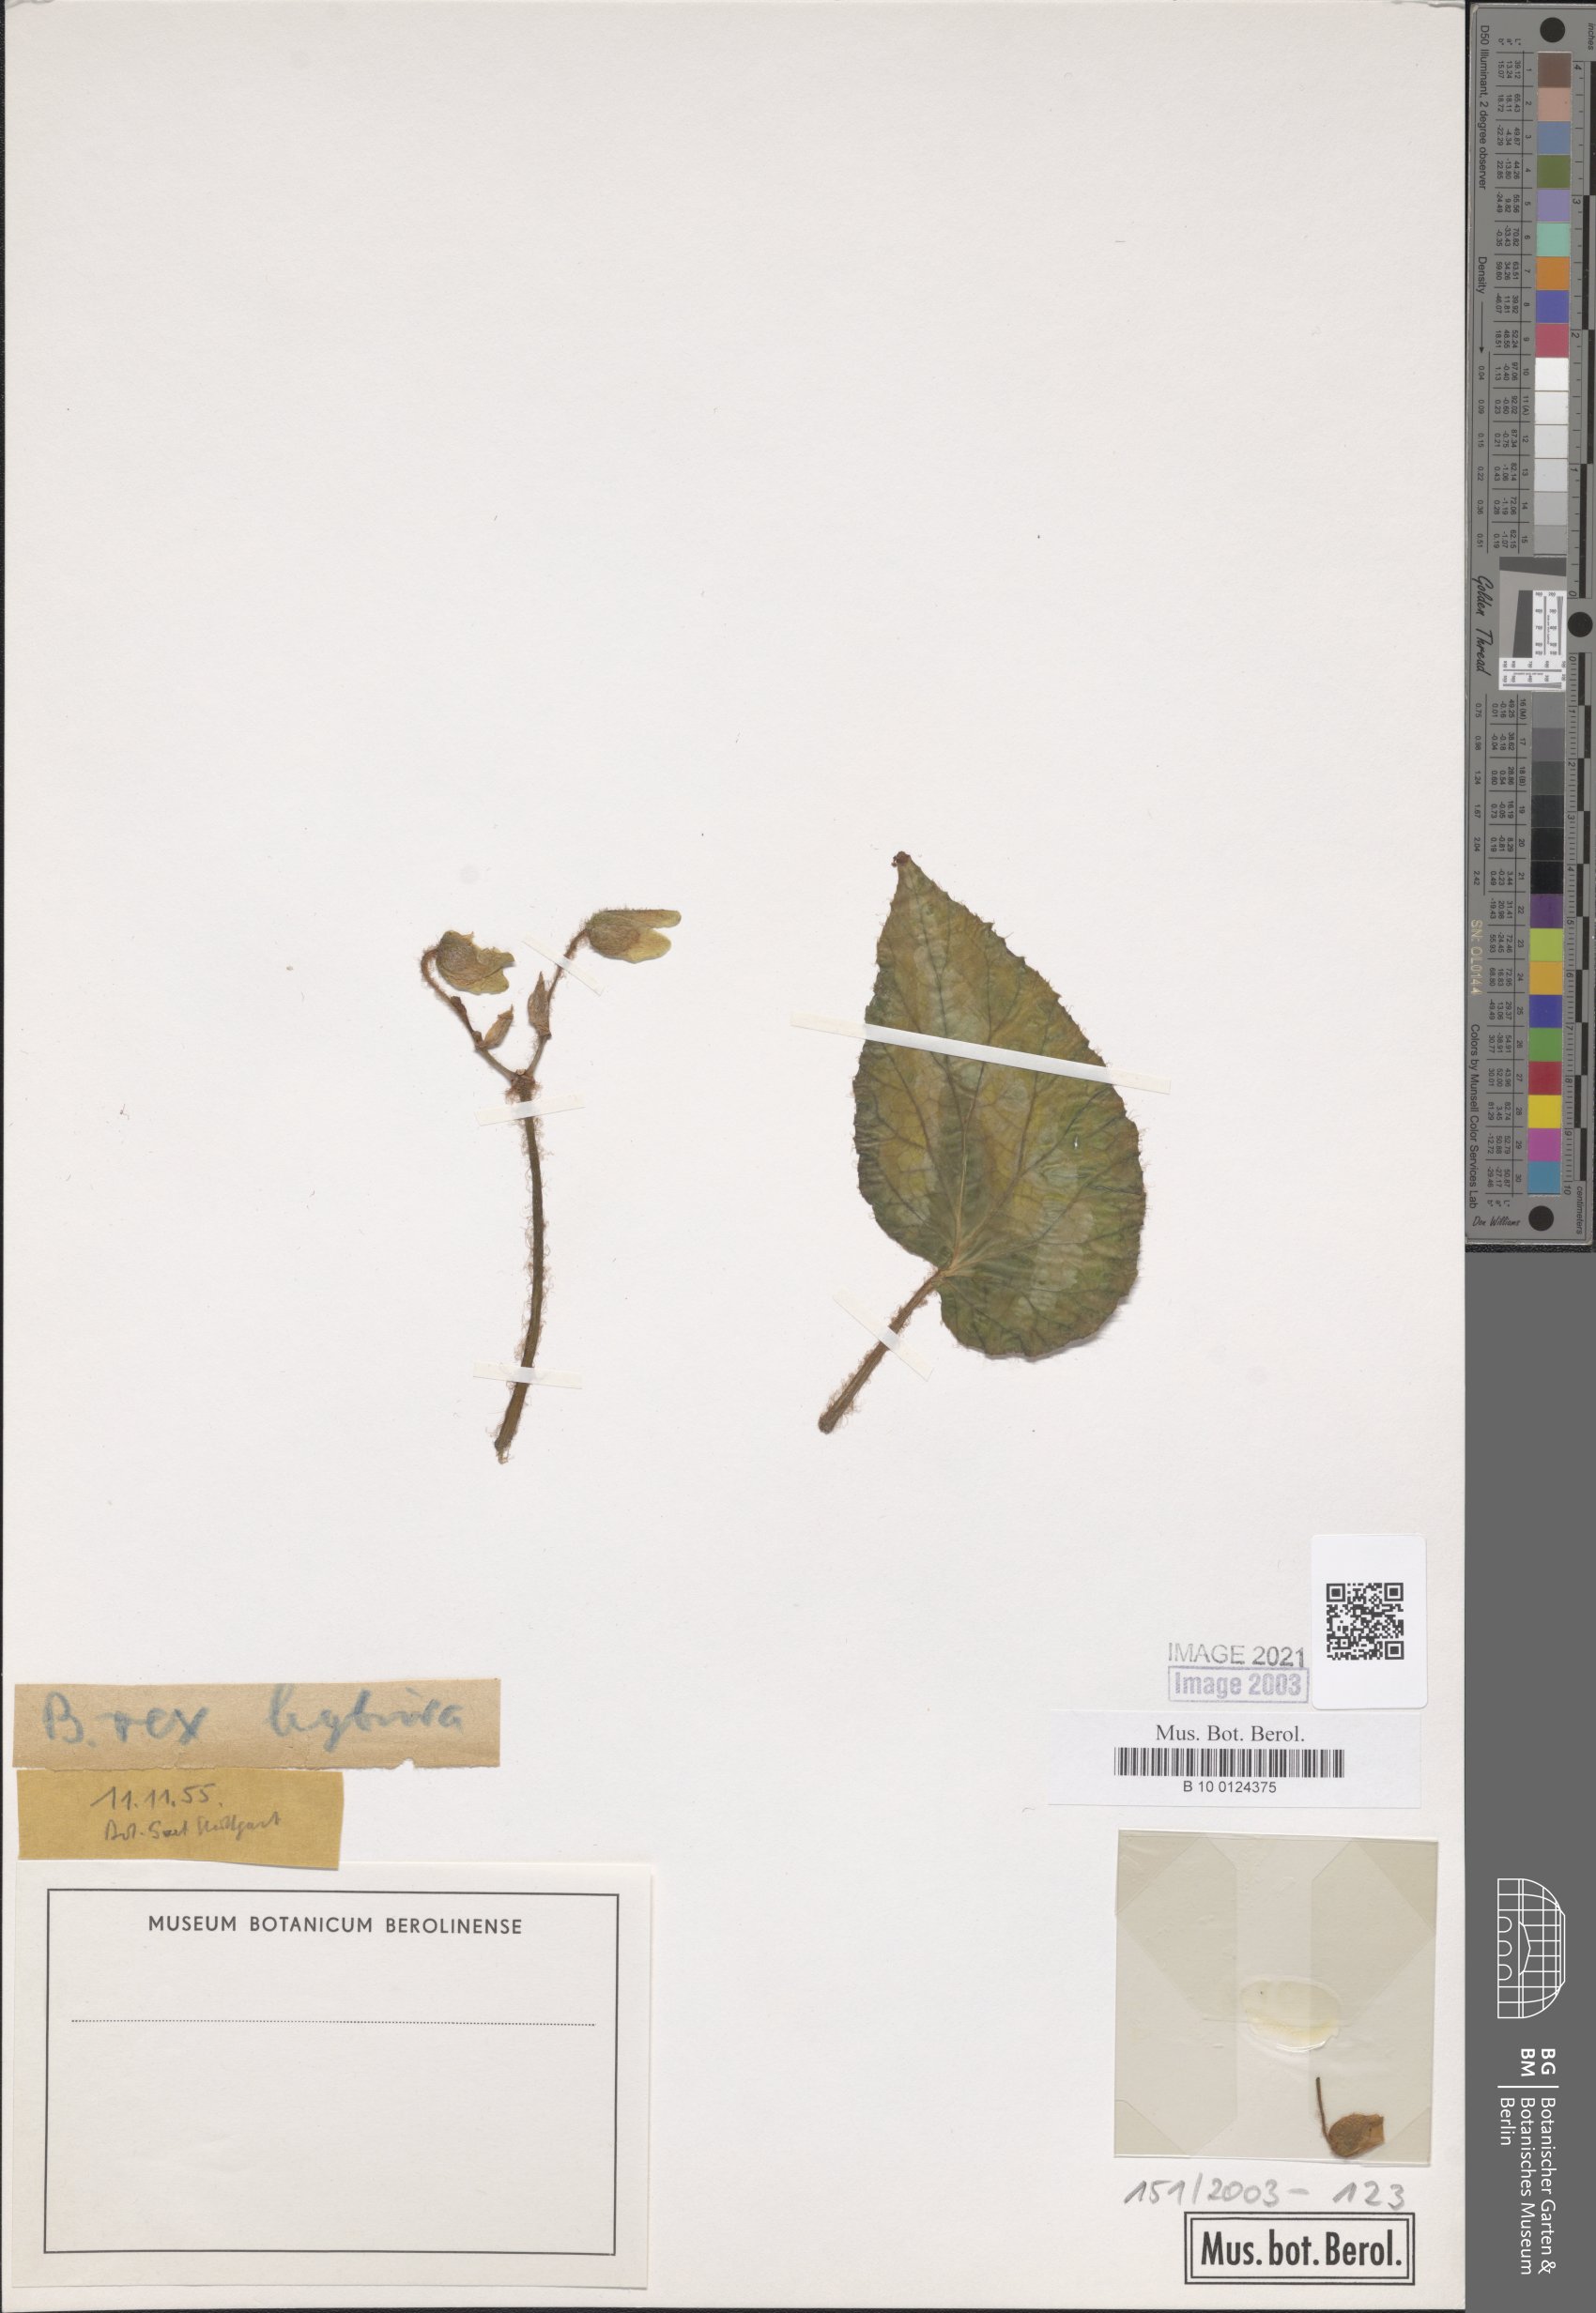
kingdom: Plantae
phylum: Tracheophyta
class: Magnoliopsida
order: Cucurbitales
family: Begoniaceae
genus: Begonia
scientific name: Begonia rex
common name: Painted-leaf begonia
